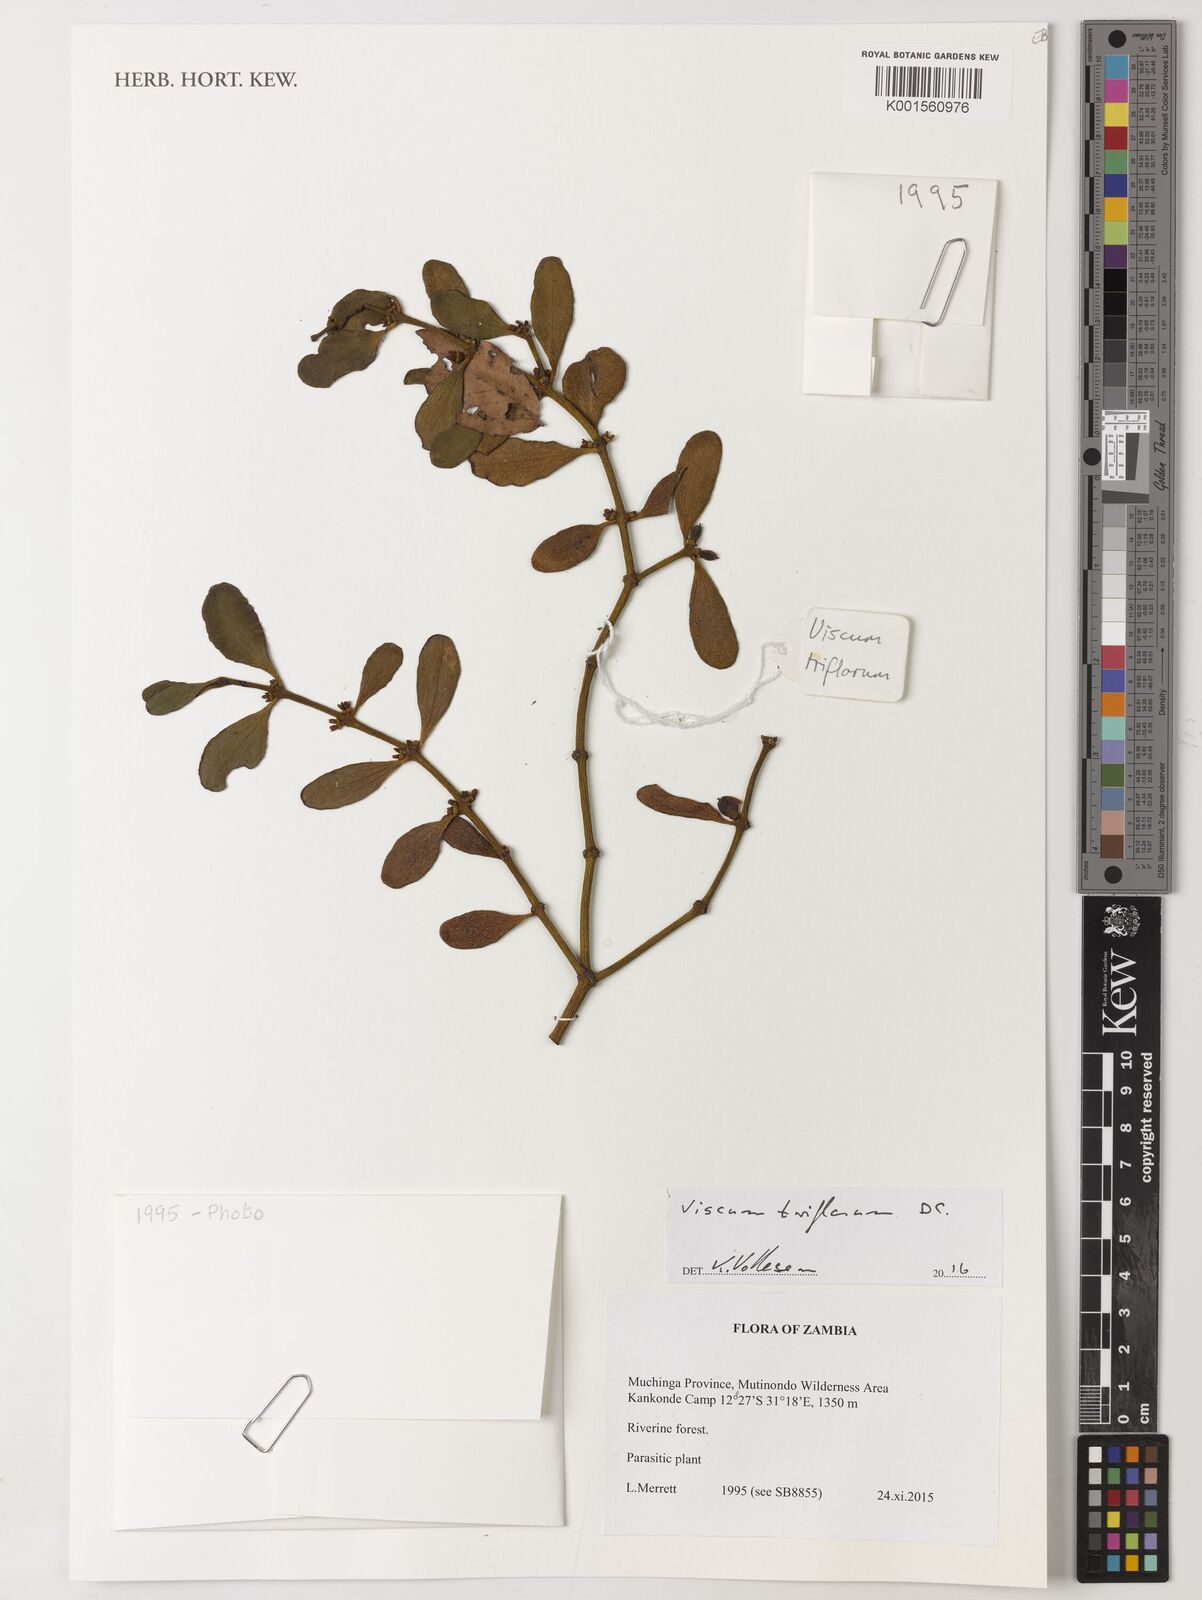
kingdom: Plantae
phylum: Tracheophyta
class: Magnoliopsida
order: Santalales
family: Viscaceae
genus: Viscum
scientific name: Viscum triflorum
